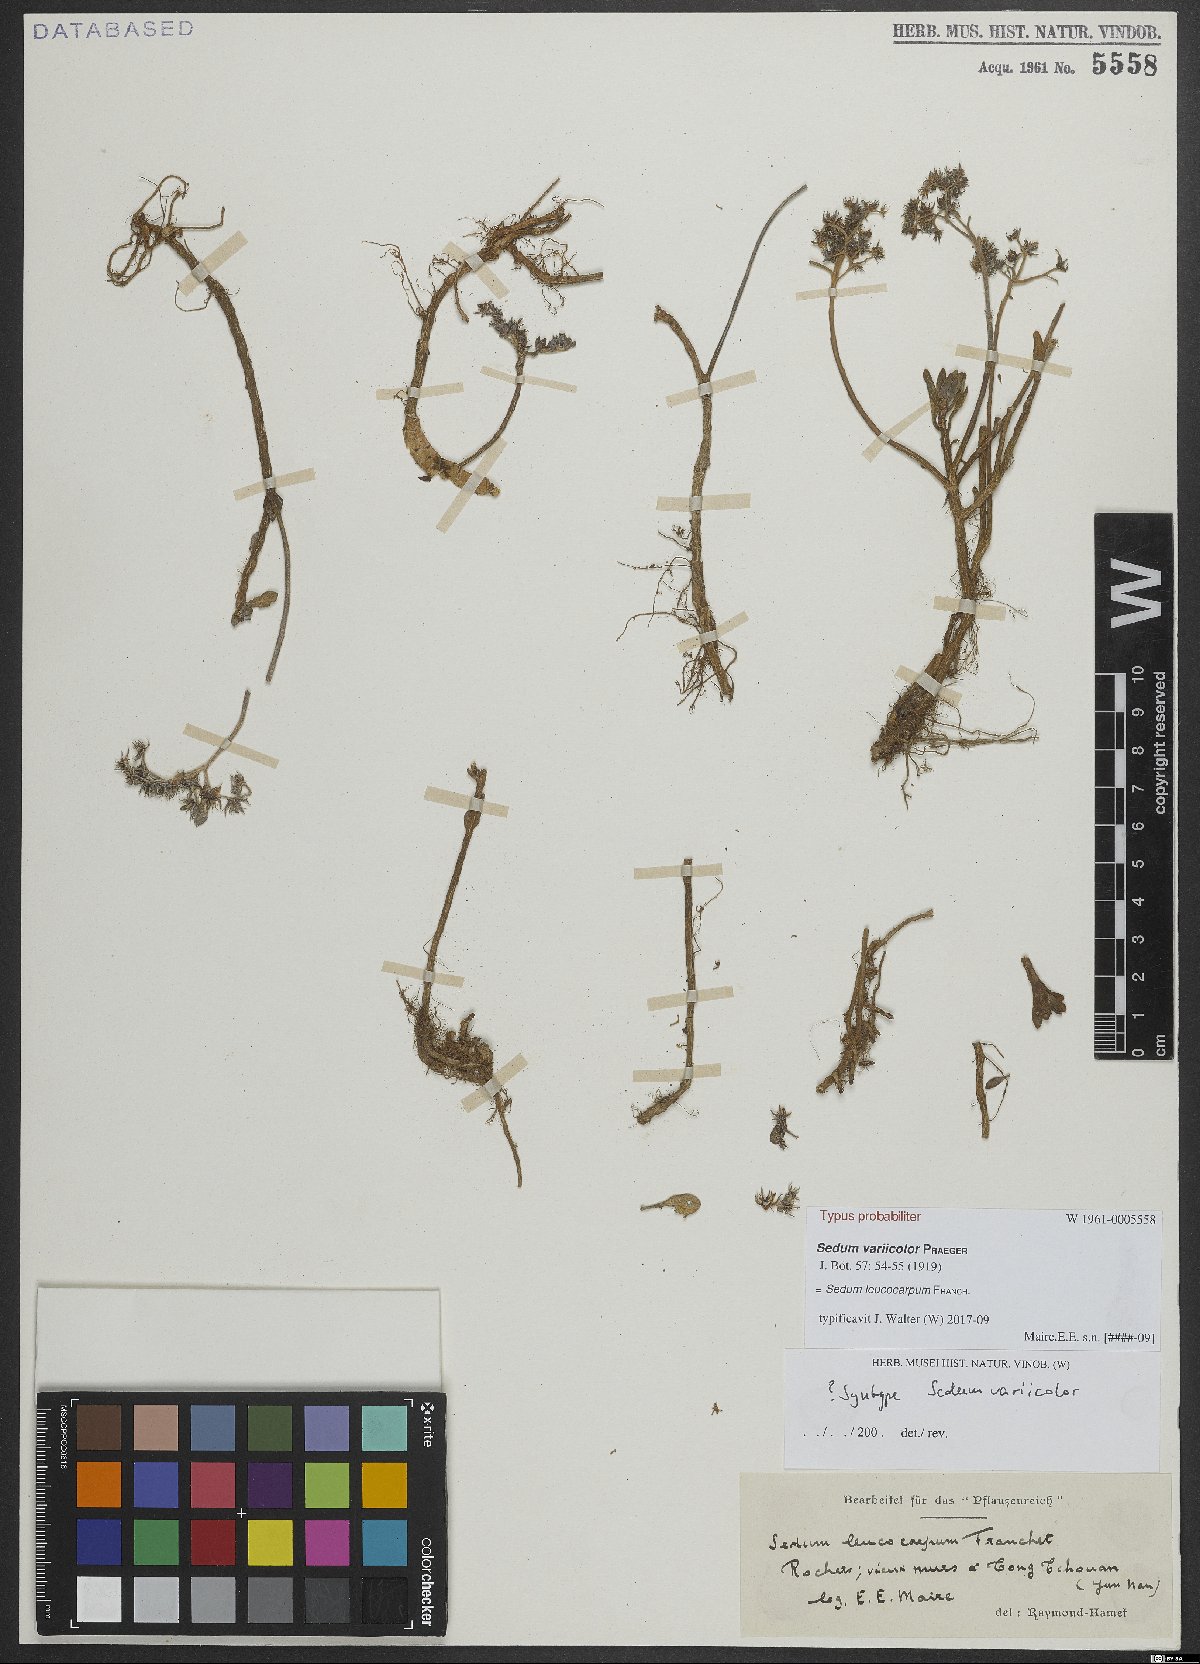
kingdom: Plantae
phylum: Tracheophyta
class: Magnoliopsida
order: Saxifragales
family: Crassulaceae
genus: Sedum
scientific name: Sedum leucocarpum
